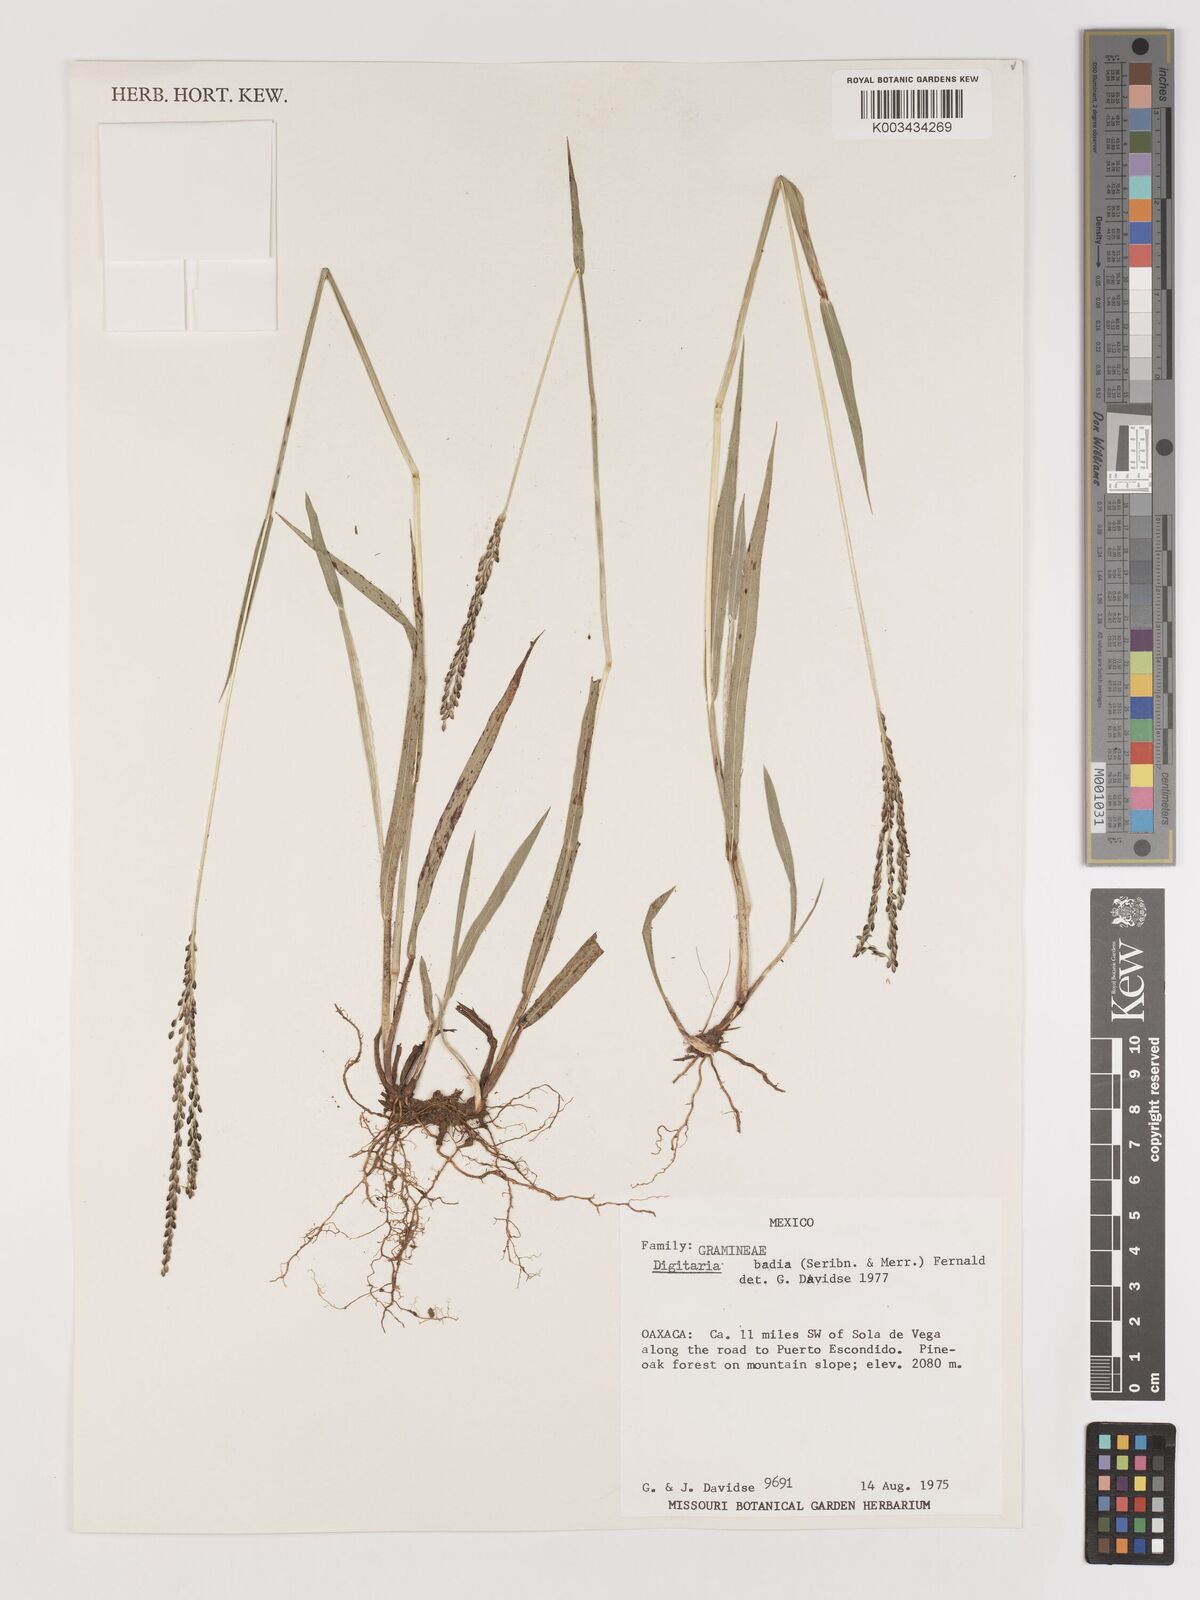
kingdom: Plantae
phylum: Tracheophyta
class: Liliopsida
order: Poales
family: Poaceae
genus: Digitaria
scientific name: Digitaria badia
